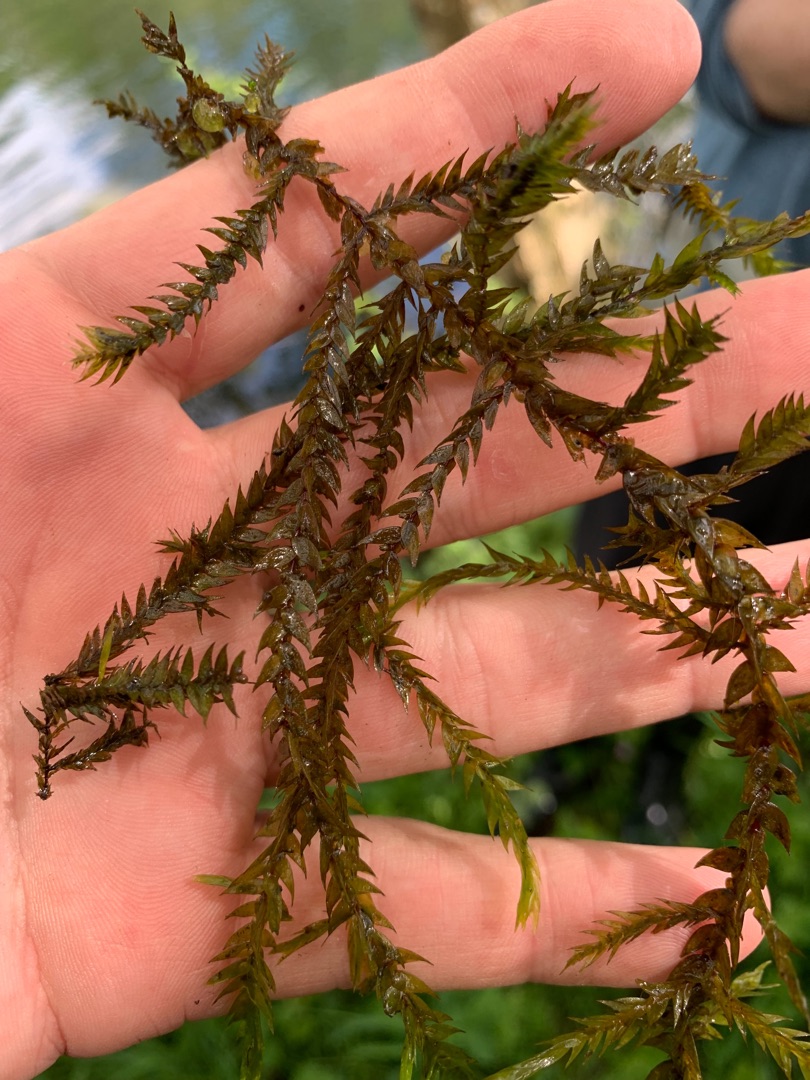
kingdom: Plantae
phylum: Bryophyta
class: Bryopsida
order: Hypnales
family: Fontinalaceae
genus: Fontinalis
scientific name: Fontinalis antipyretica
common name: Stor kildemos
